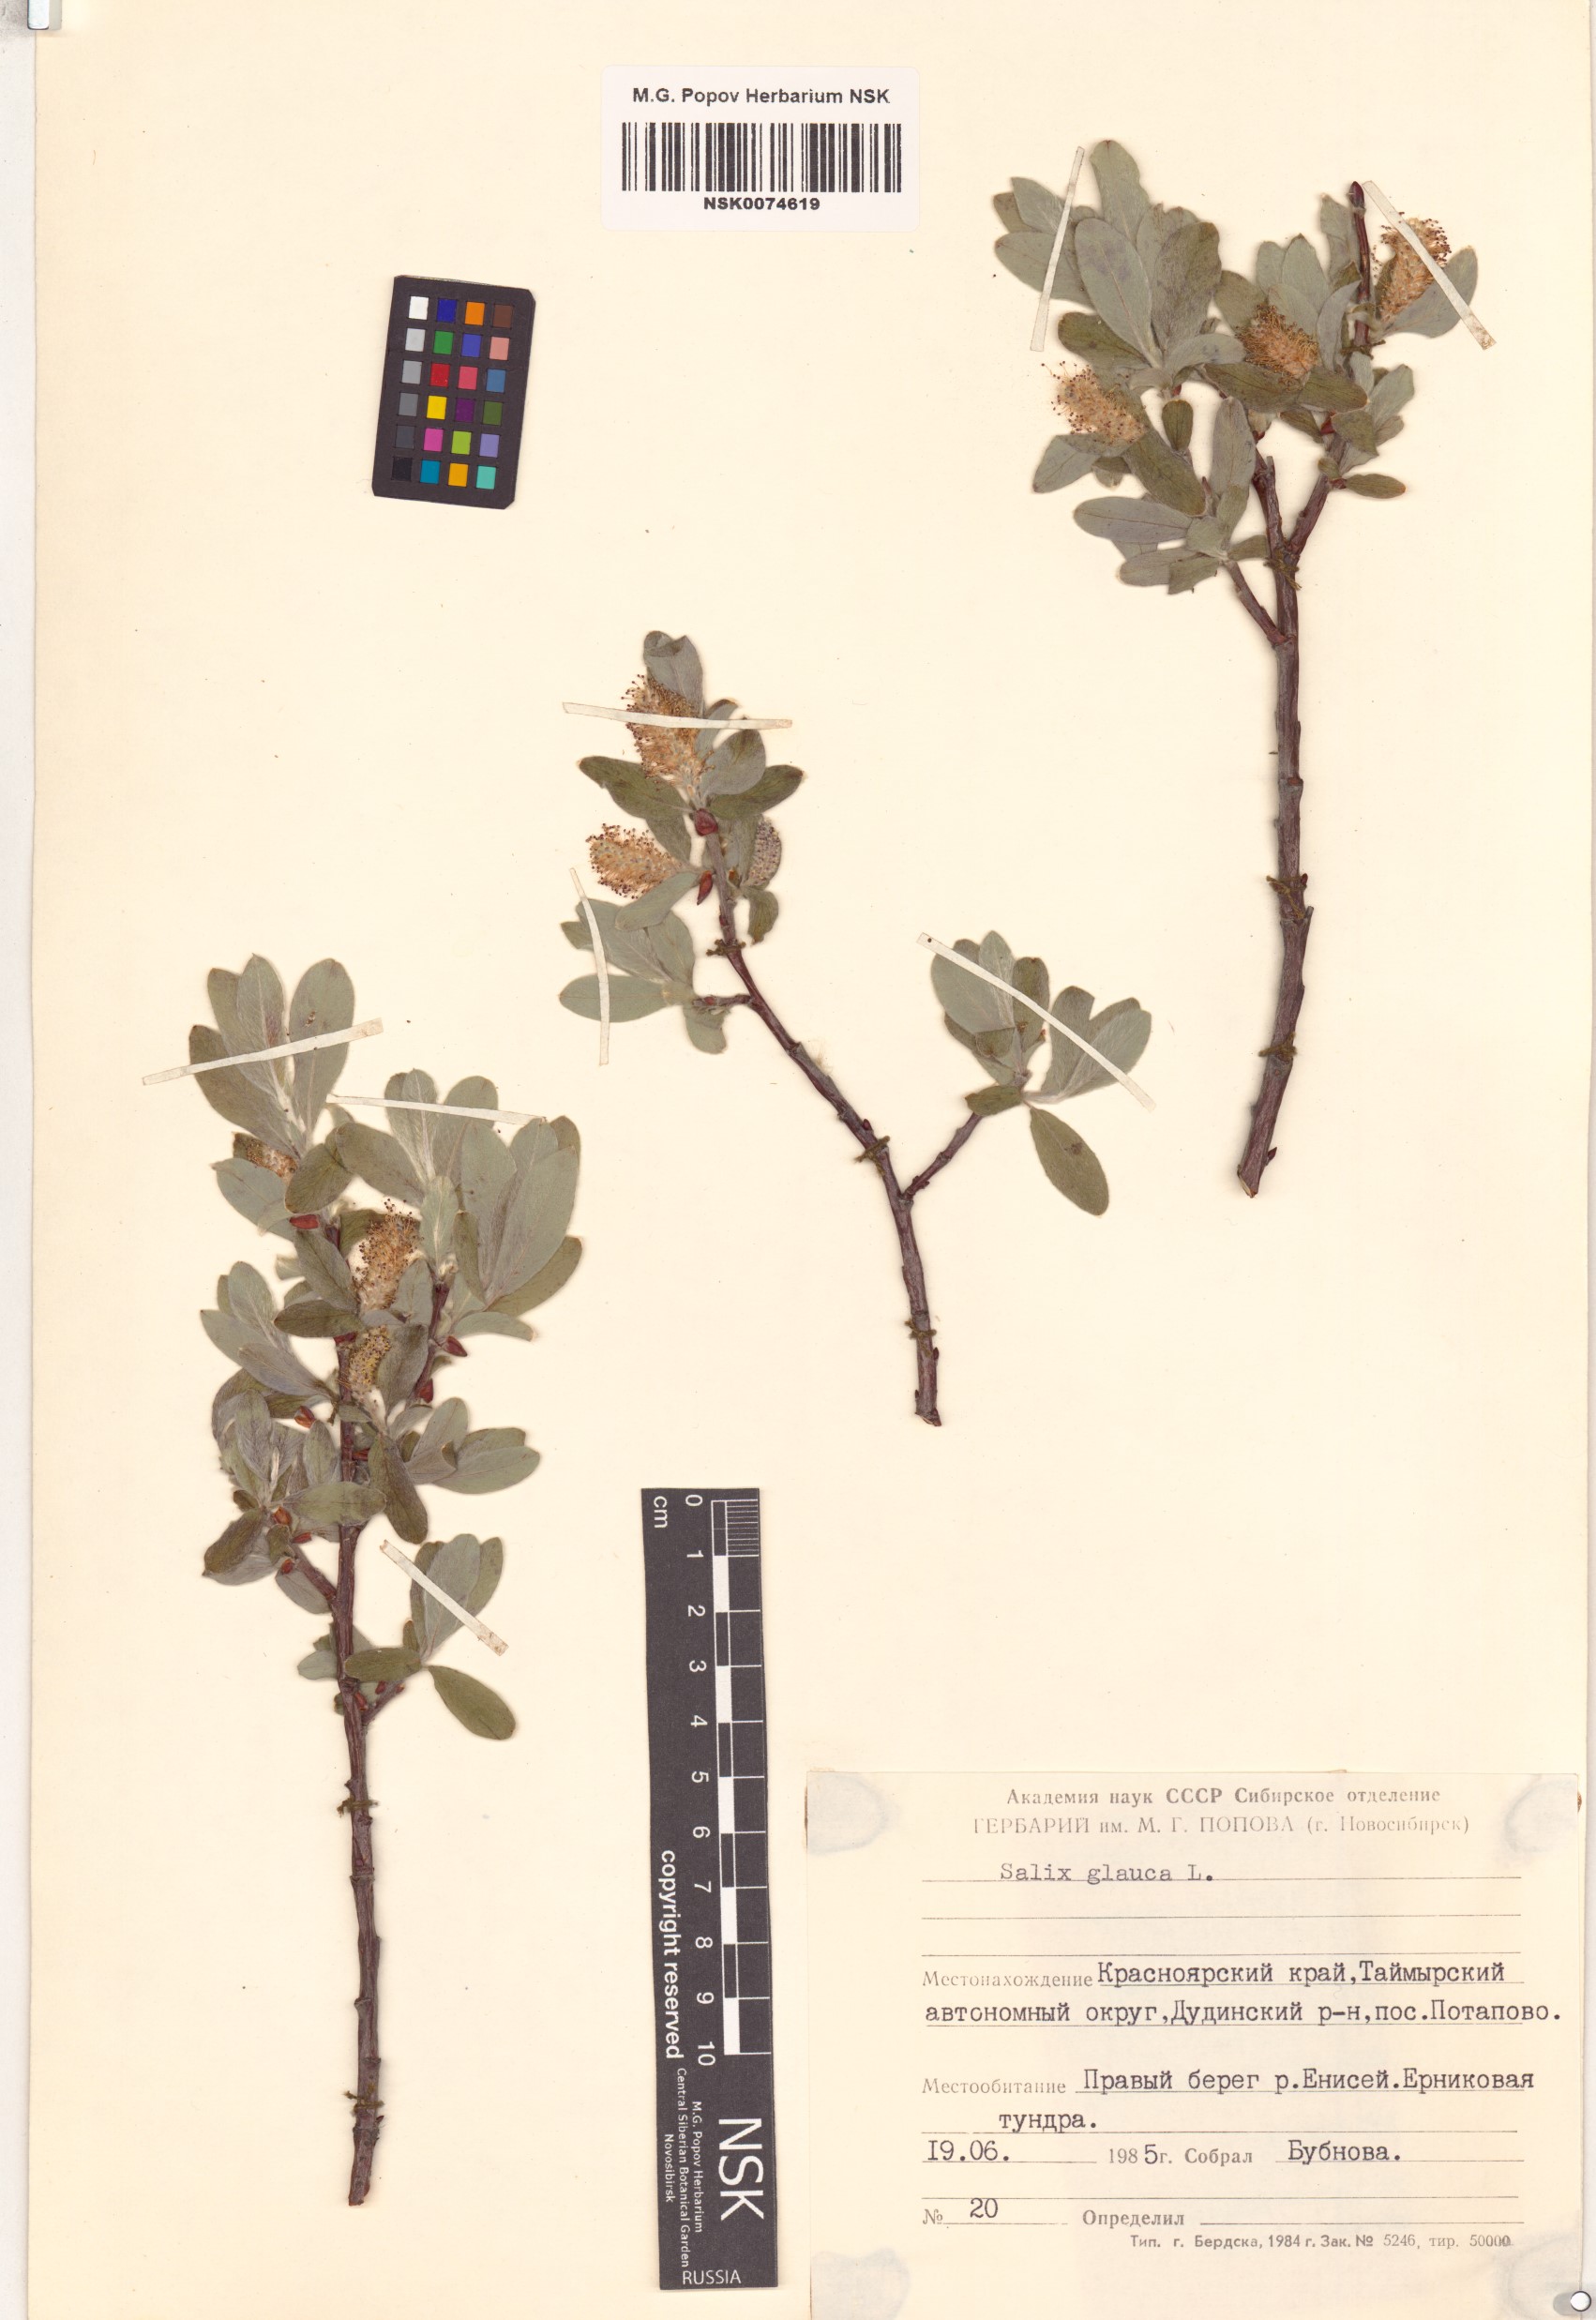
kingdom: Plantae
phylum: Tracheophyta
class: Magnoliopsida
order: Malpighiales
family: Salicaceae
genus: Salix
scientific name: Salix glauca
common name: Glaucous willow
